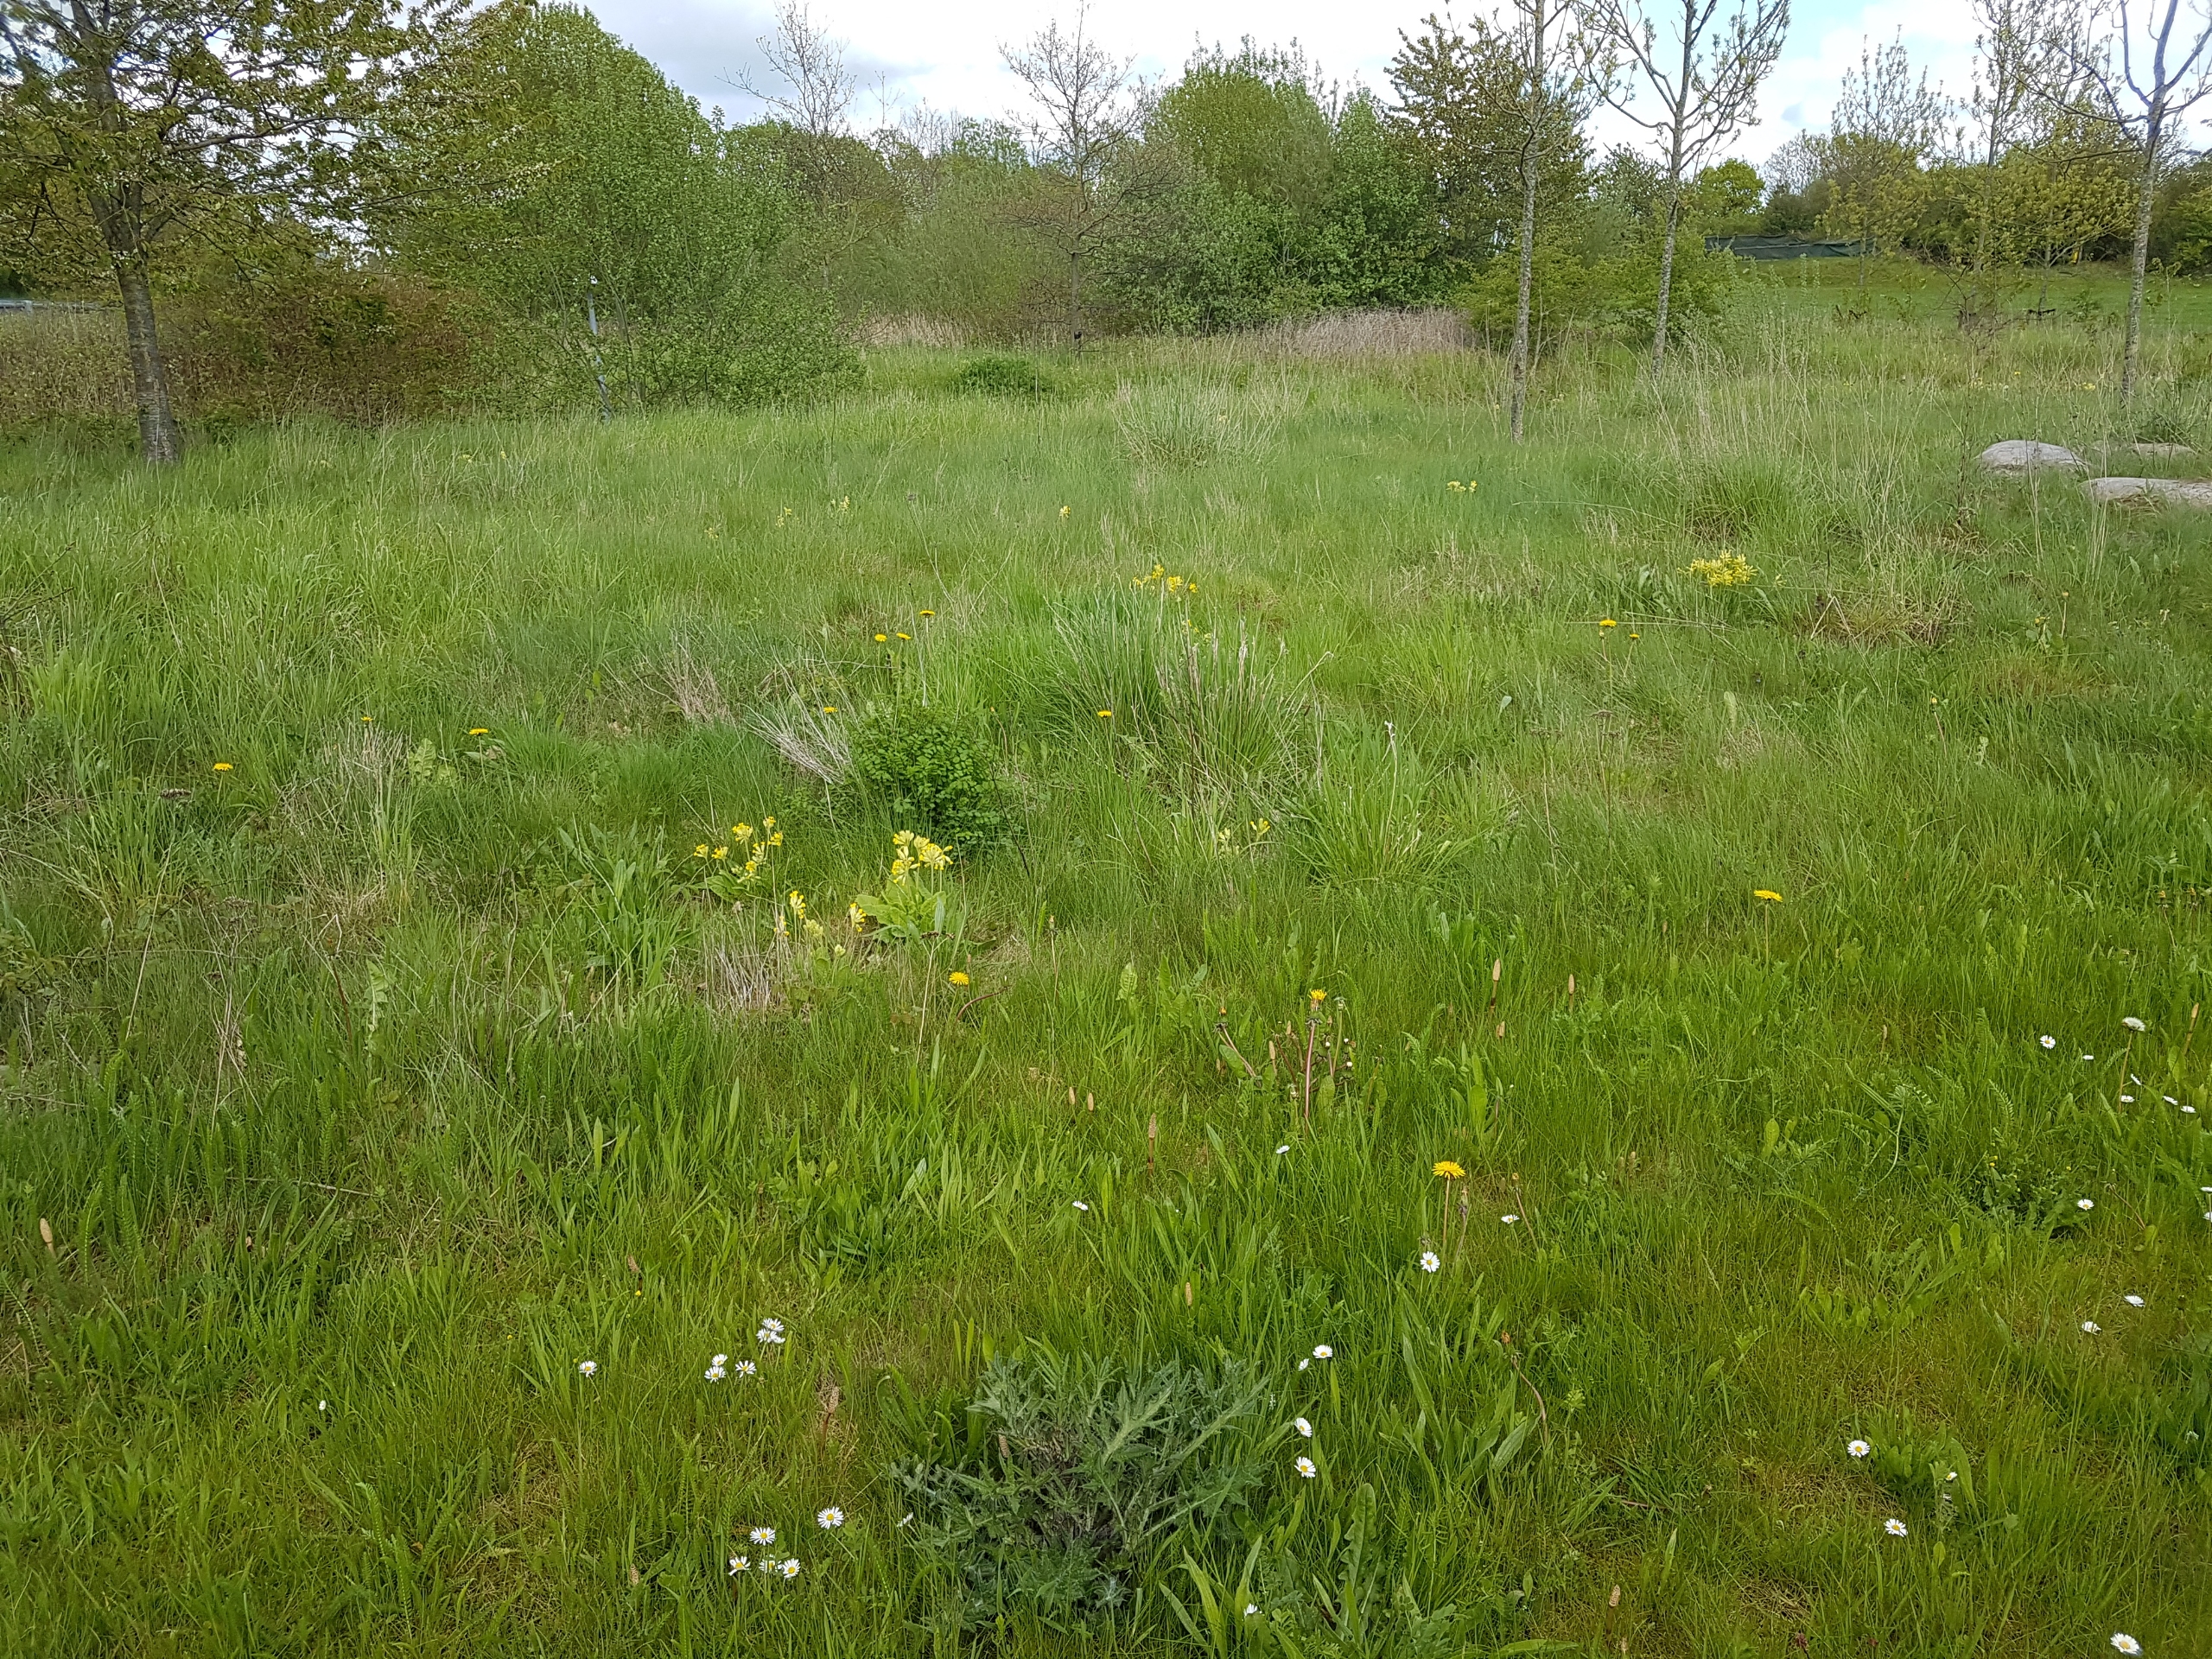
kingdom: Plantae
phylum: Tracheophyta
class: Magnoliopsida
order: Ericales
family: Primulaceae
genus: Primula
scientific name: Primula veris
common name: Hulkravet kodriver
